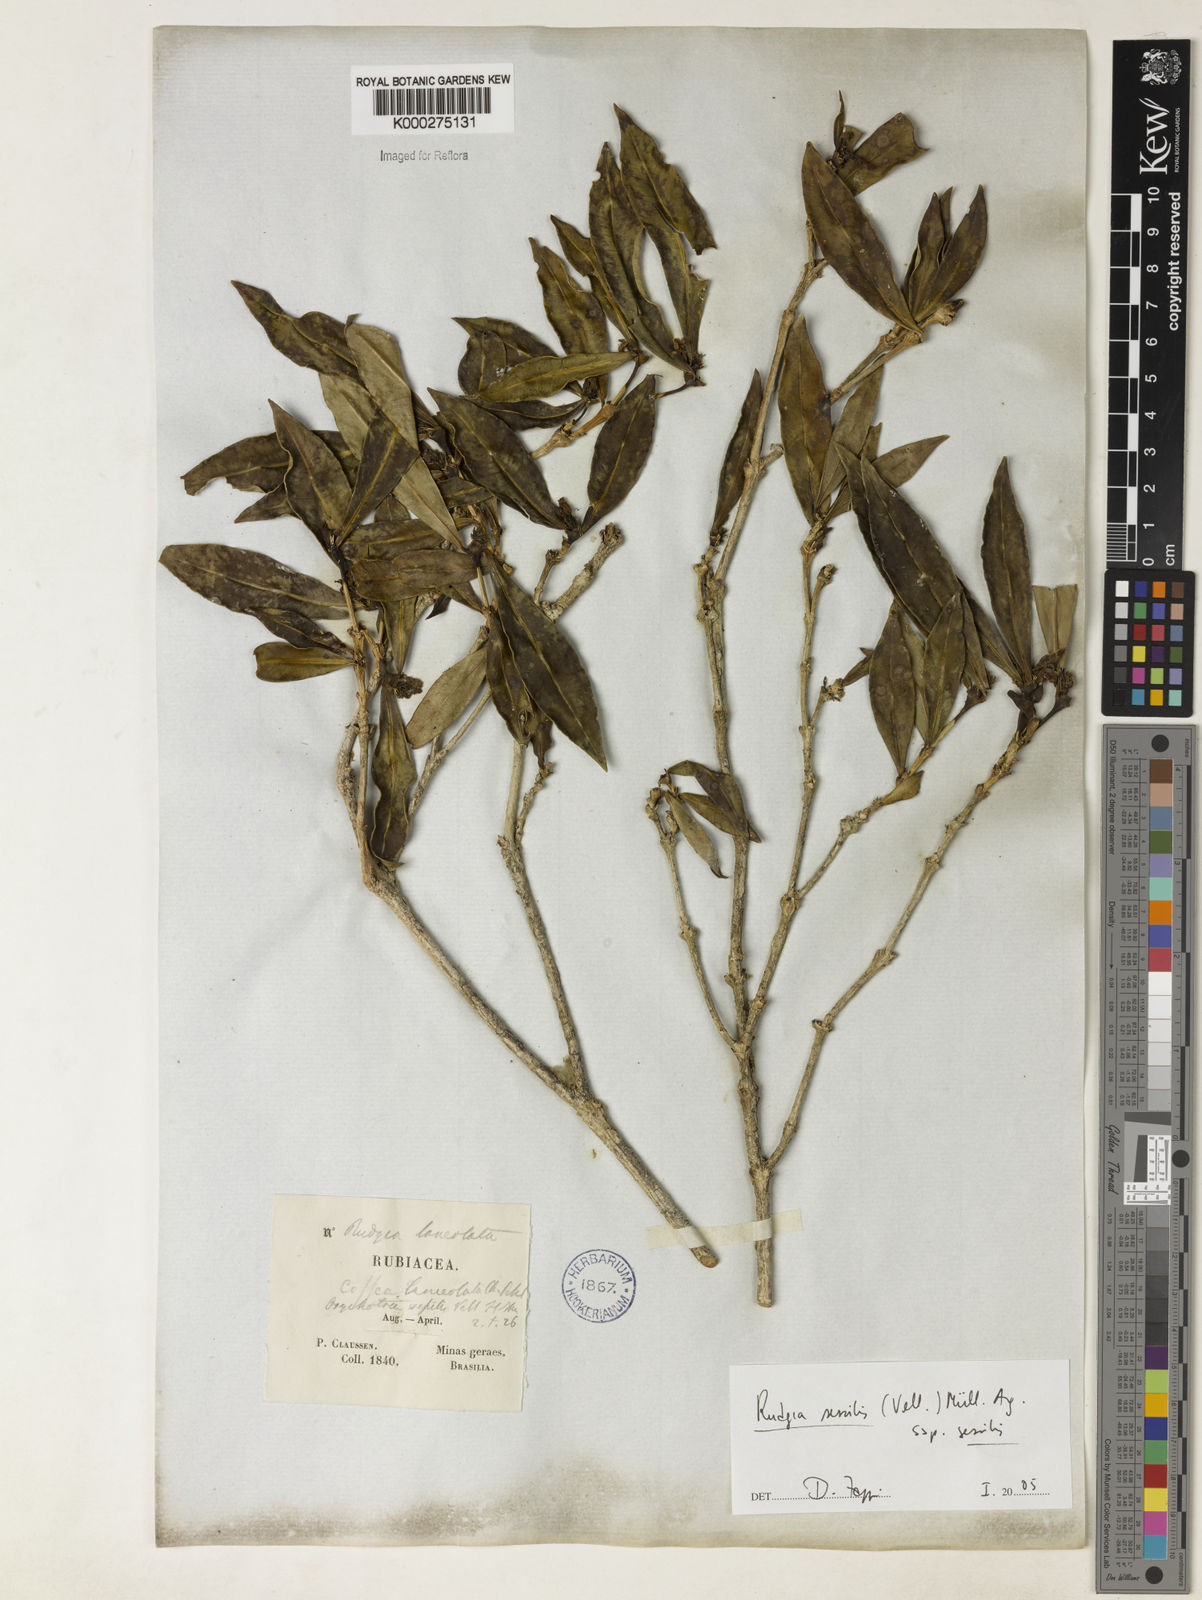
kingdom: Plantae
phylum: Tracheophyta
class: Magnoliopsida
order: Gentianales
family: Rubiaceae
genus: Rudgea
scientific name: Rudgea sessilis
